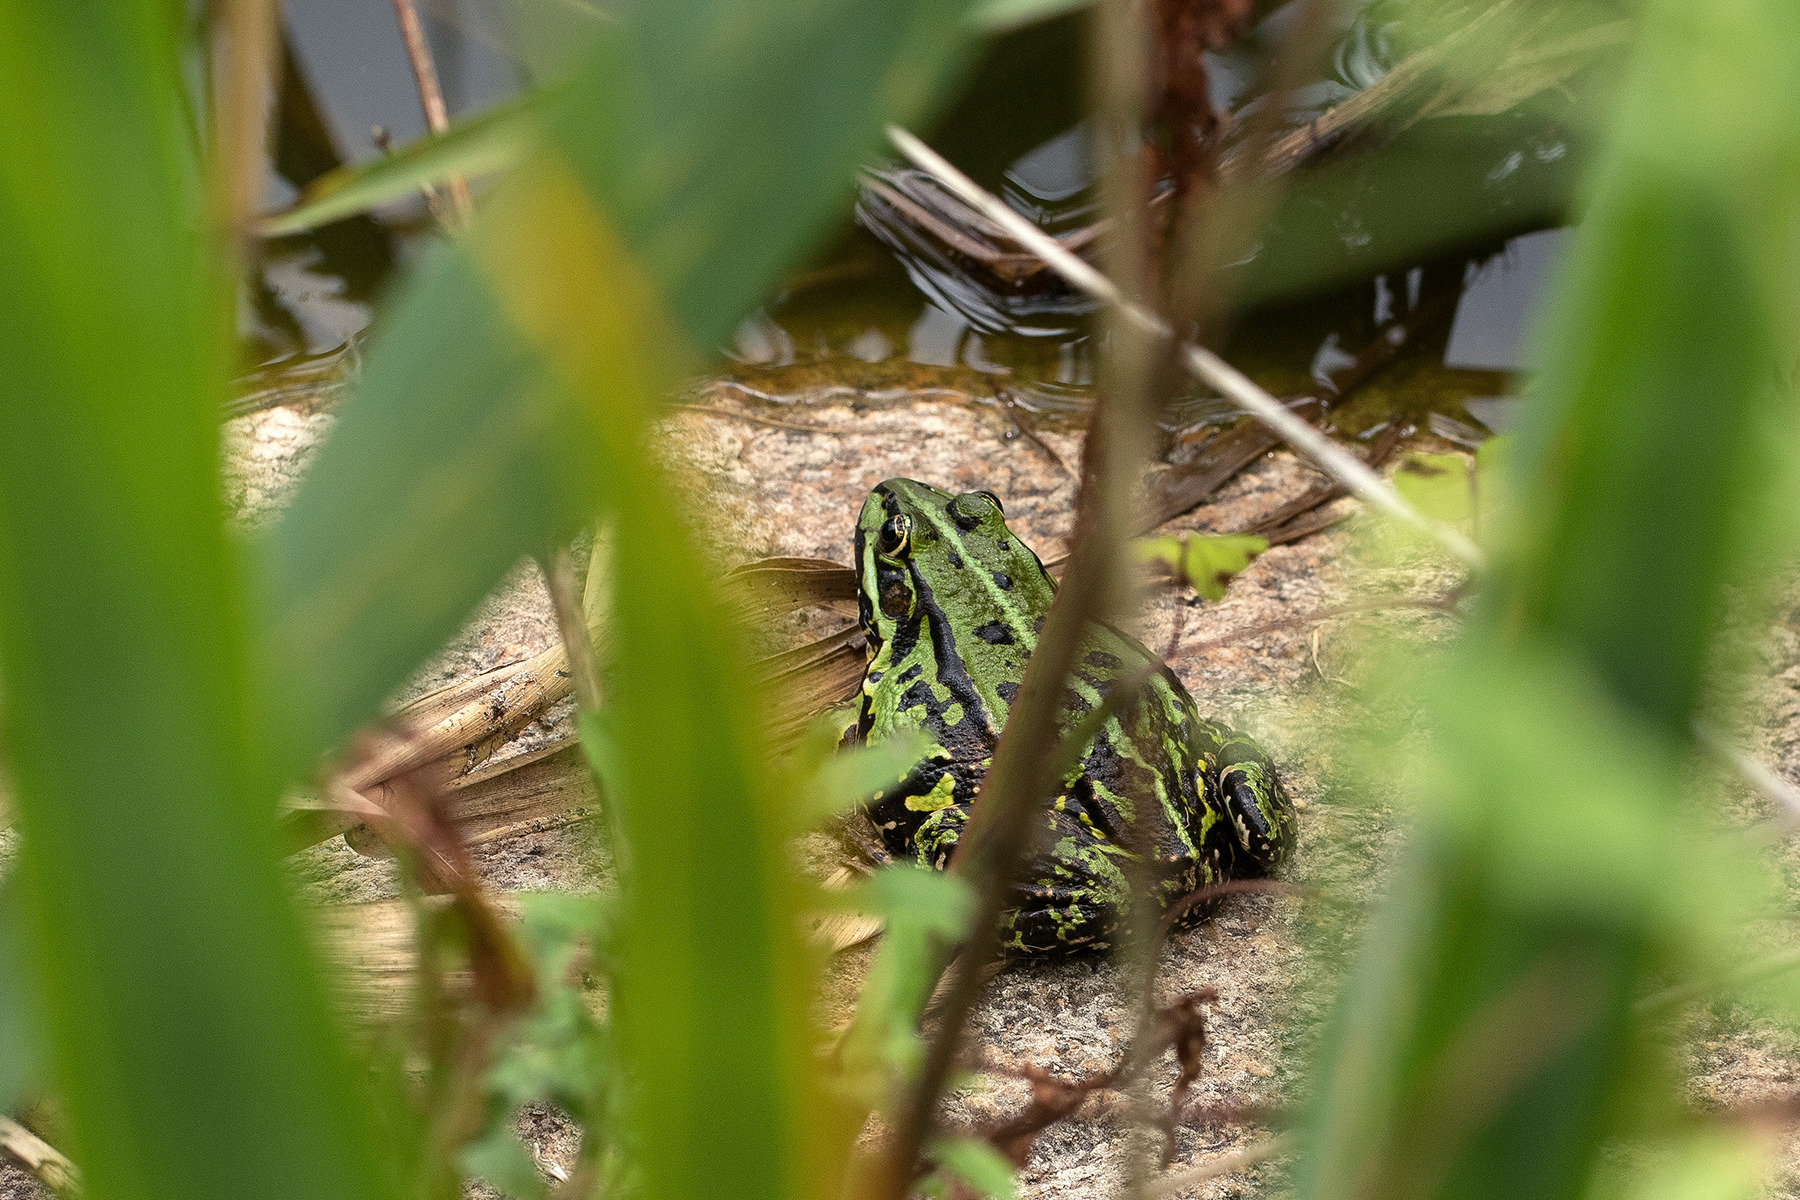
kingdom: Animalia
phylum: Chordata
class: Amphibia
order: Anura
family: Ranidae
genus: Pelophylax
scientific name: Pelophylax lessonae
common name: Grøn frø
